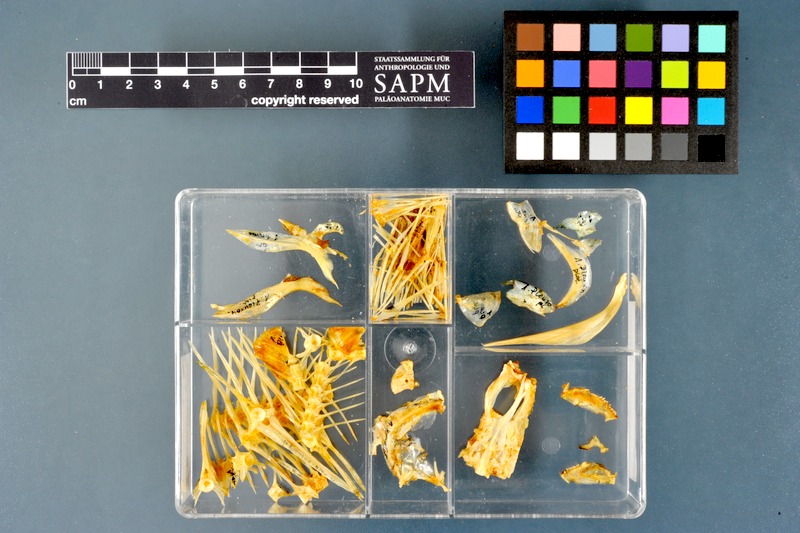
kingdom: Animalia
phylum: Chordata
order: Pleuronectiformes
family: Pleuronectidae
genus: Pleuronectes
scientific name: Pleuronectes platessa
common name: Plaice
